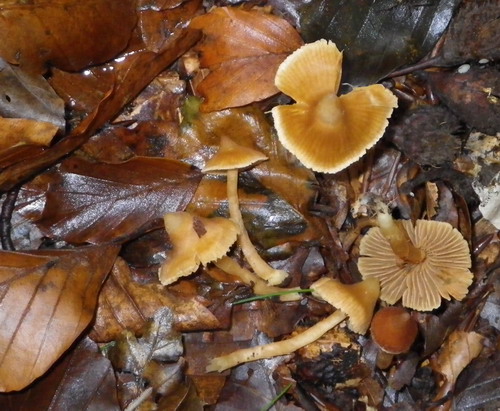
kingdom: Fungi
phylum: Basidiomycota
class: Agaricomycetes
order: Agaricales
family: Cortinariaceae
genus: Cortinarius
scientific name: Cortinarius acutus
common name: spids slørhat
